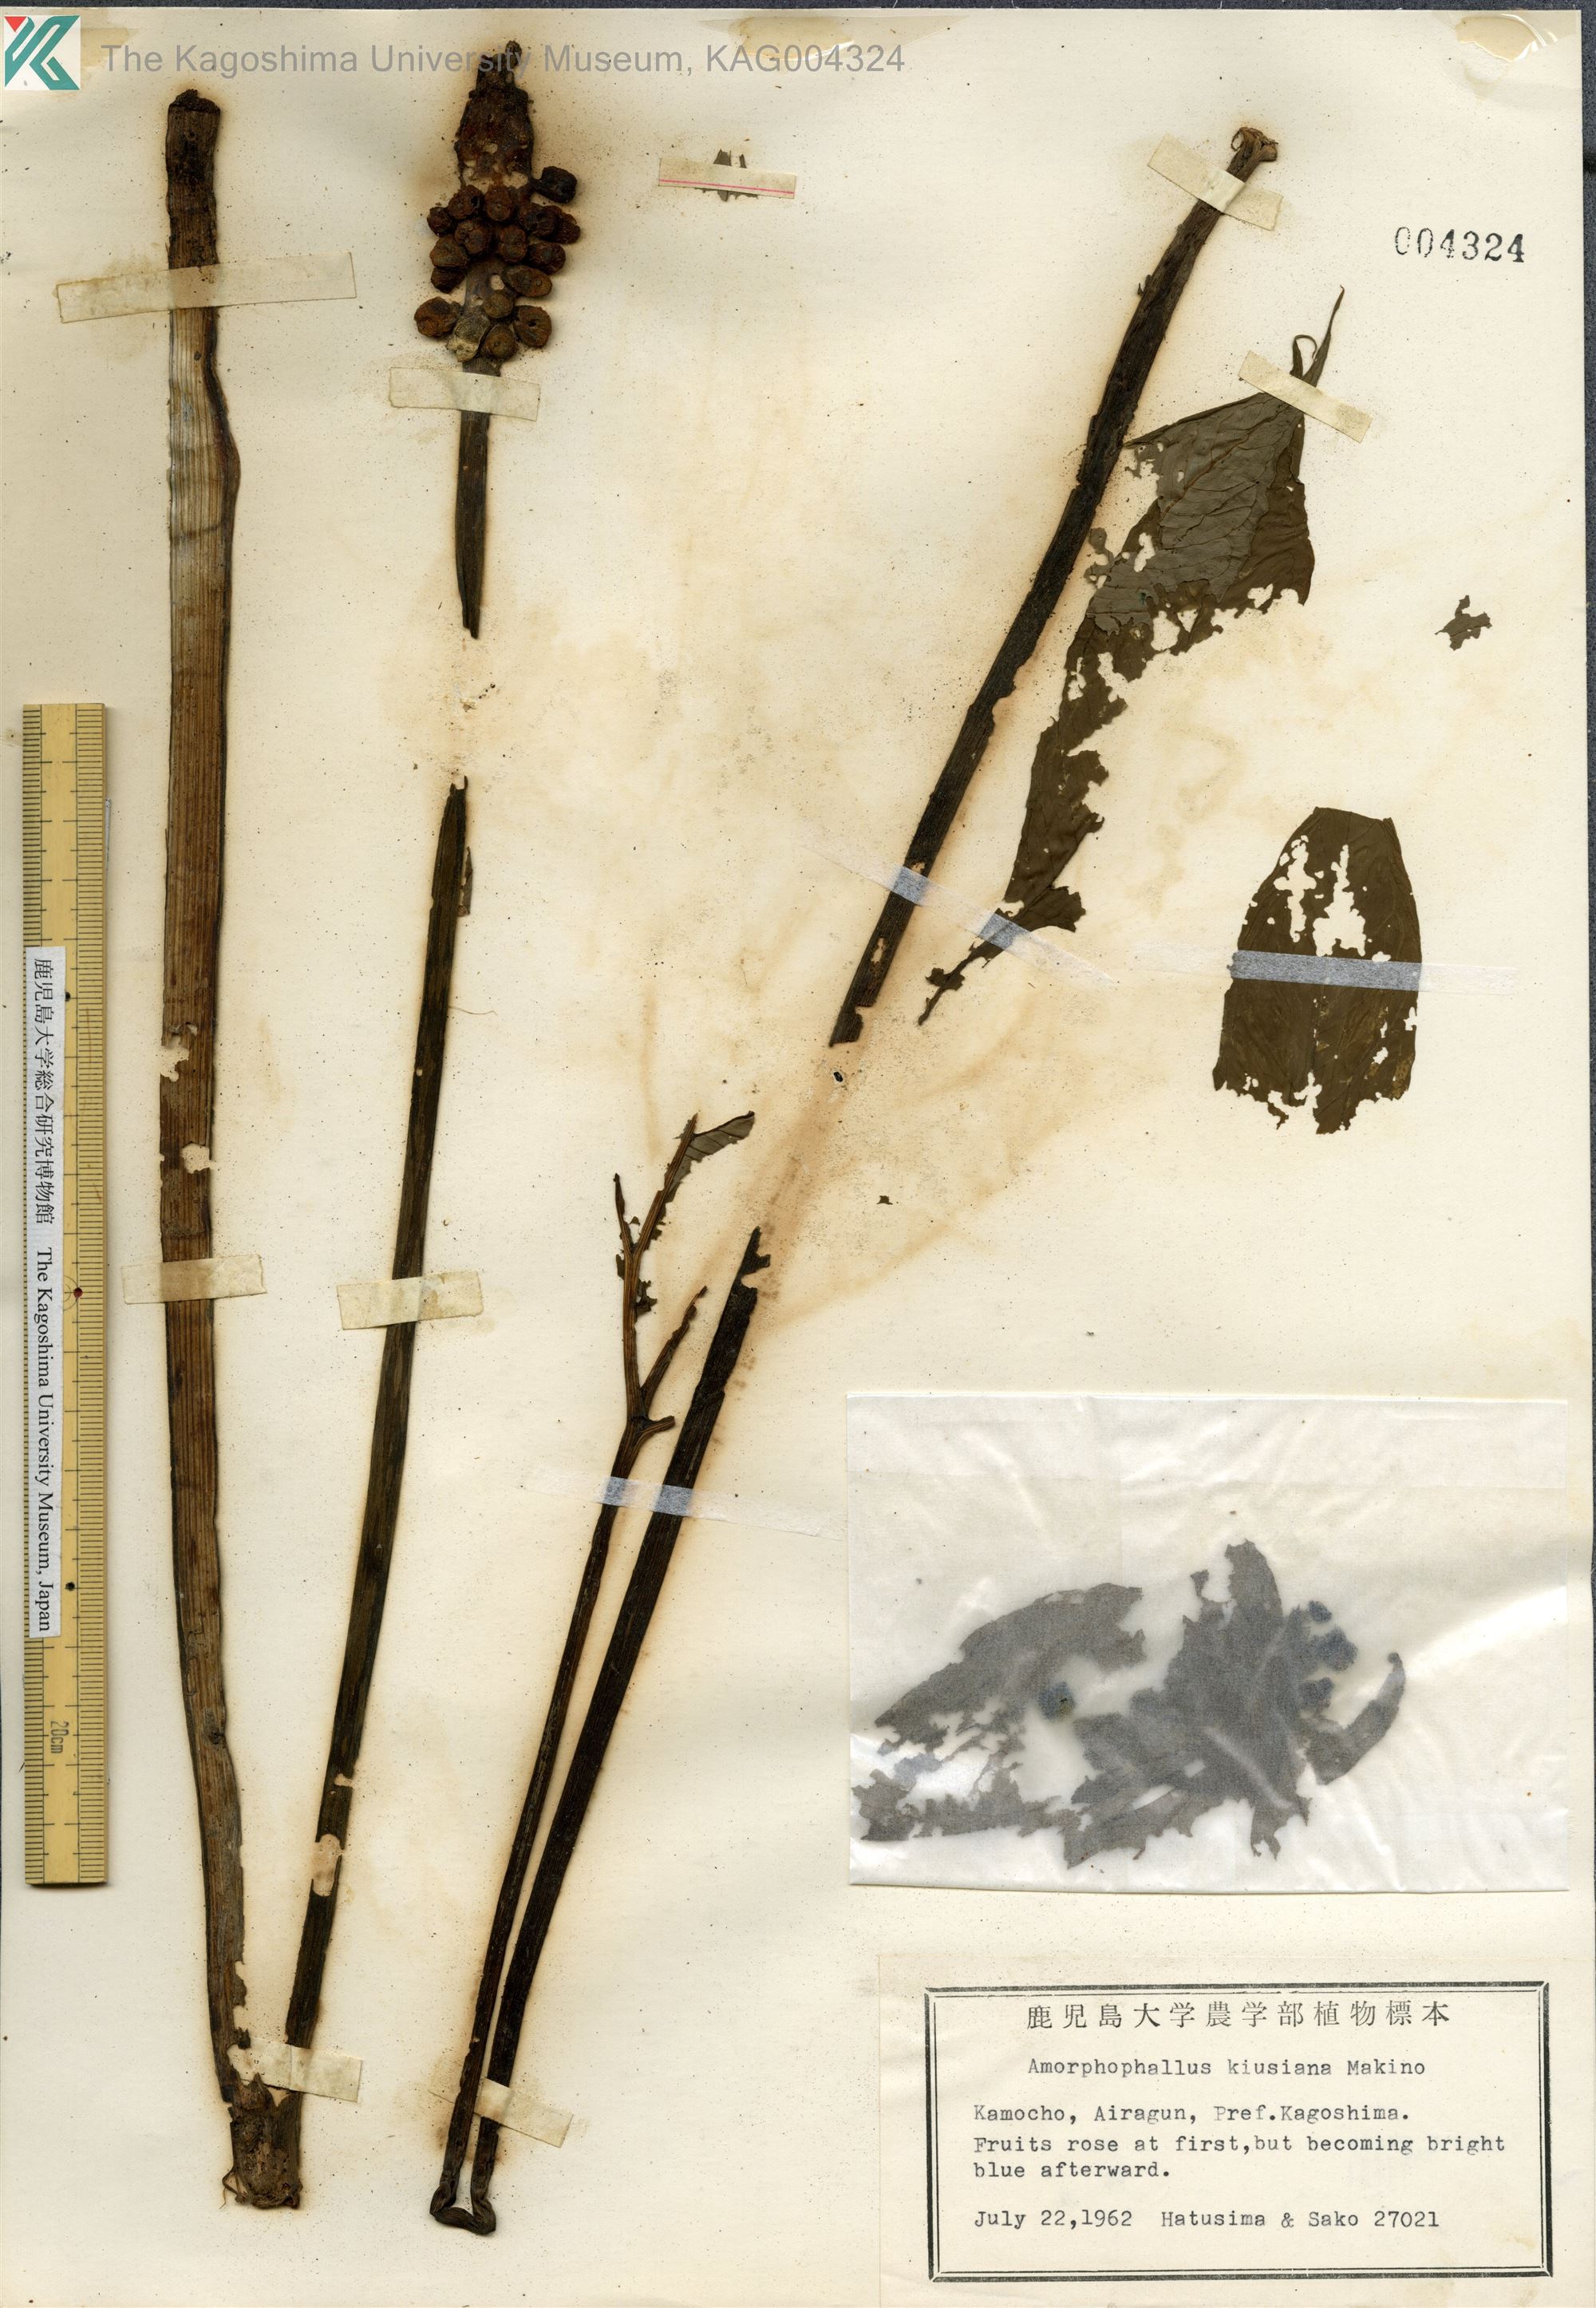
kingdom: Plantae
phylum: Tracheophyta
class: Liliopsida
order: Alismatales
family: Araceae
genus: Amorphophallus
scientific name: Amorphophallus kiusianus
